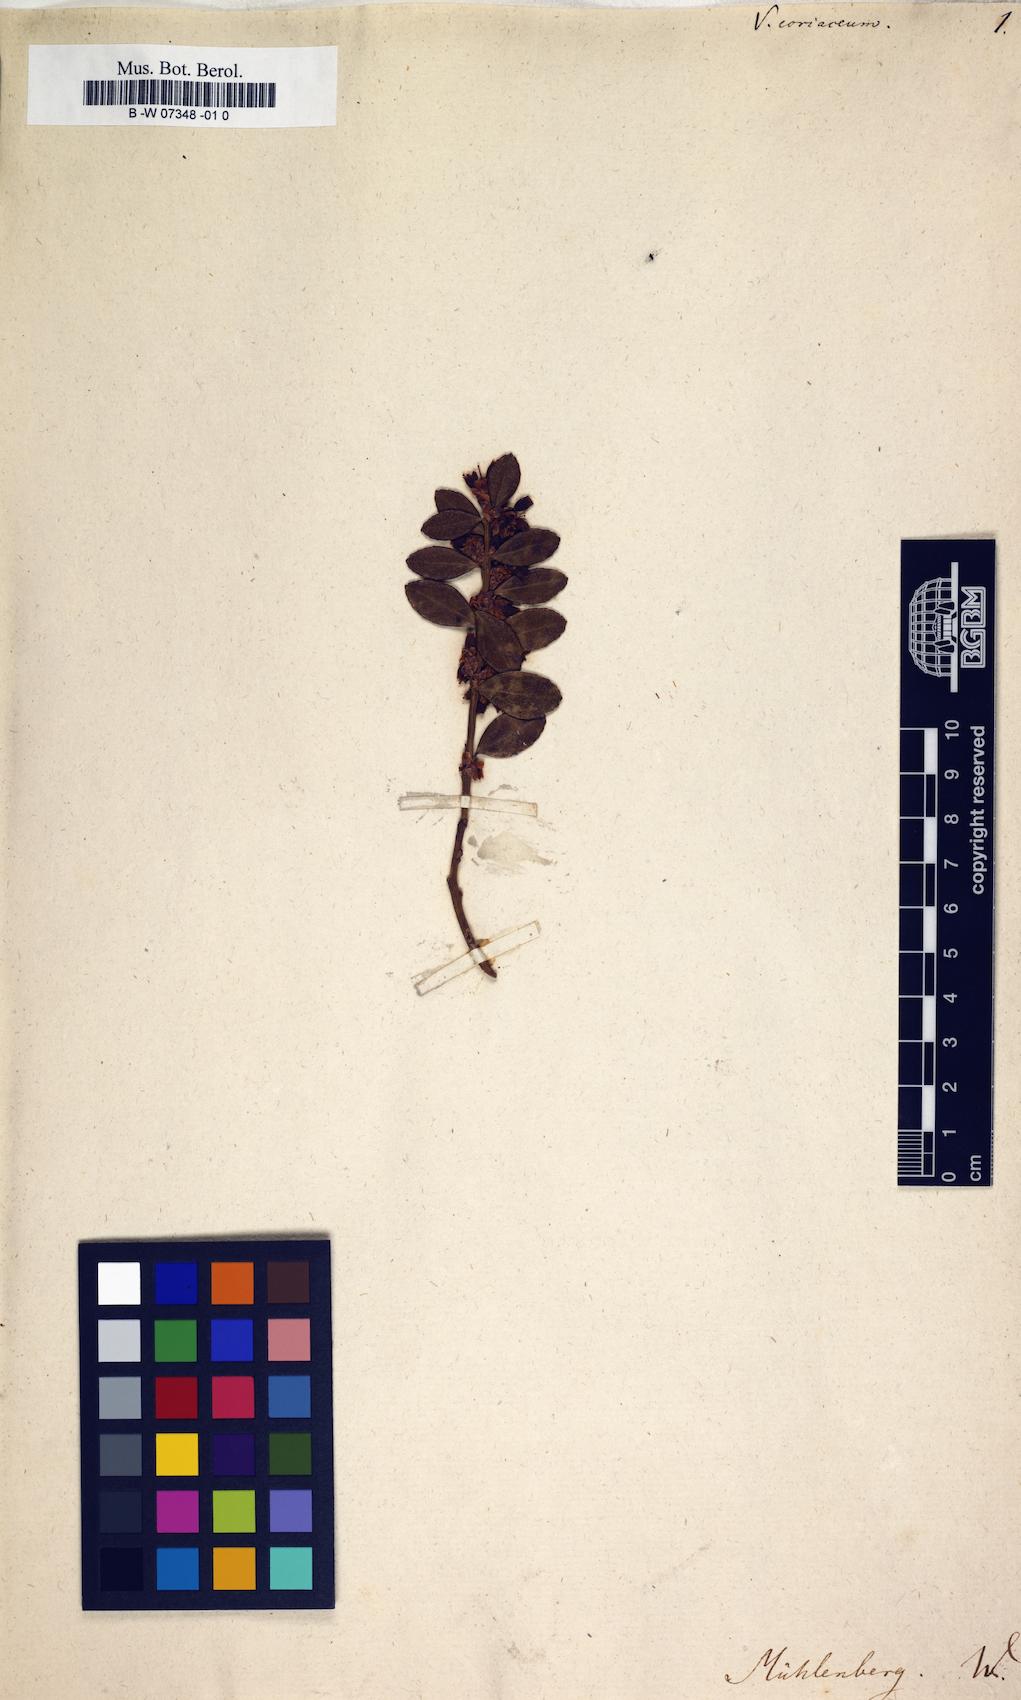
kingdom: Plantae
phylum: Tracheophyta
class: Magnoliopsida
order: Ericales
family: Ericaceae
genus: Vaccinium
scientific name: Vaccinium coriaceum
